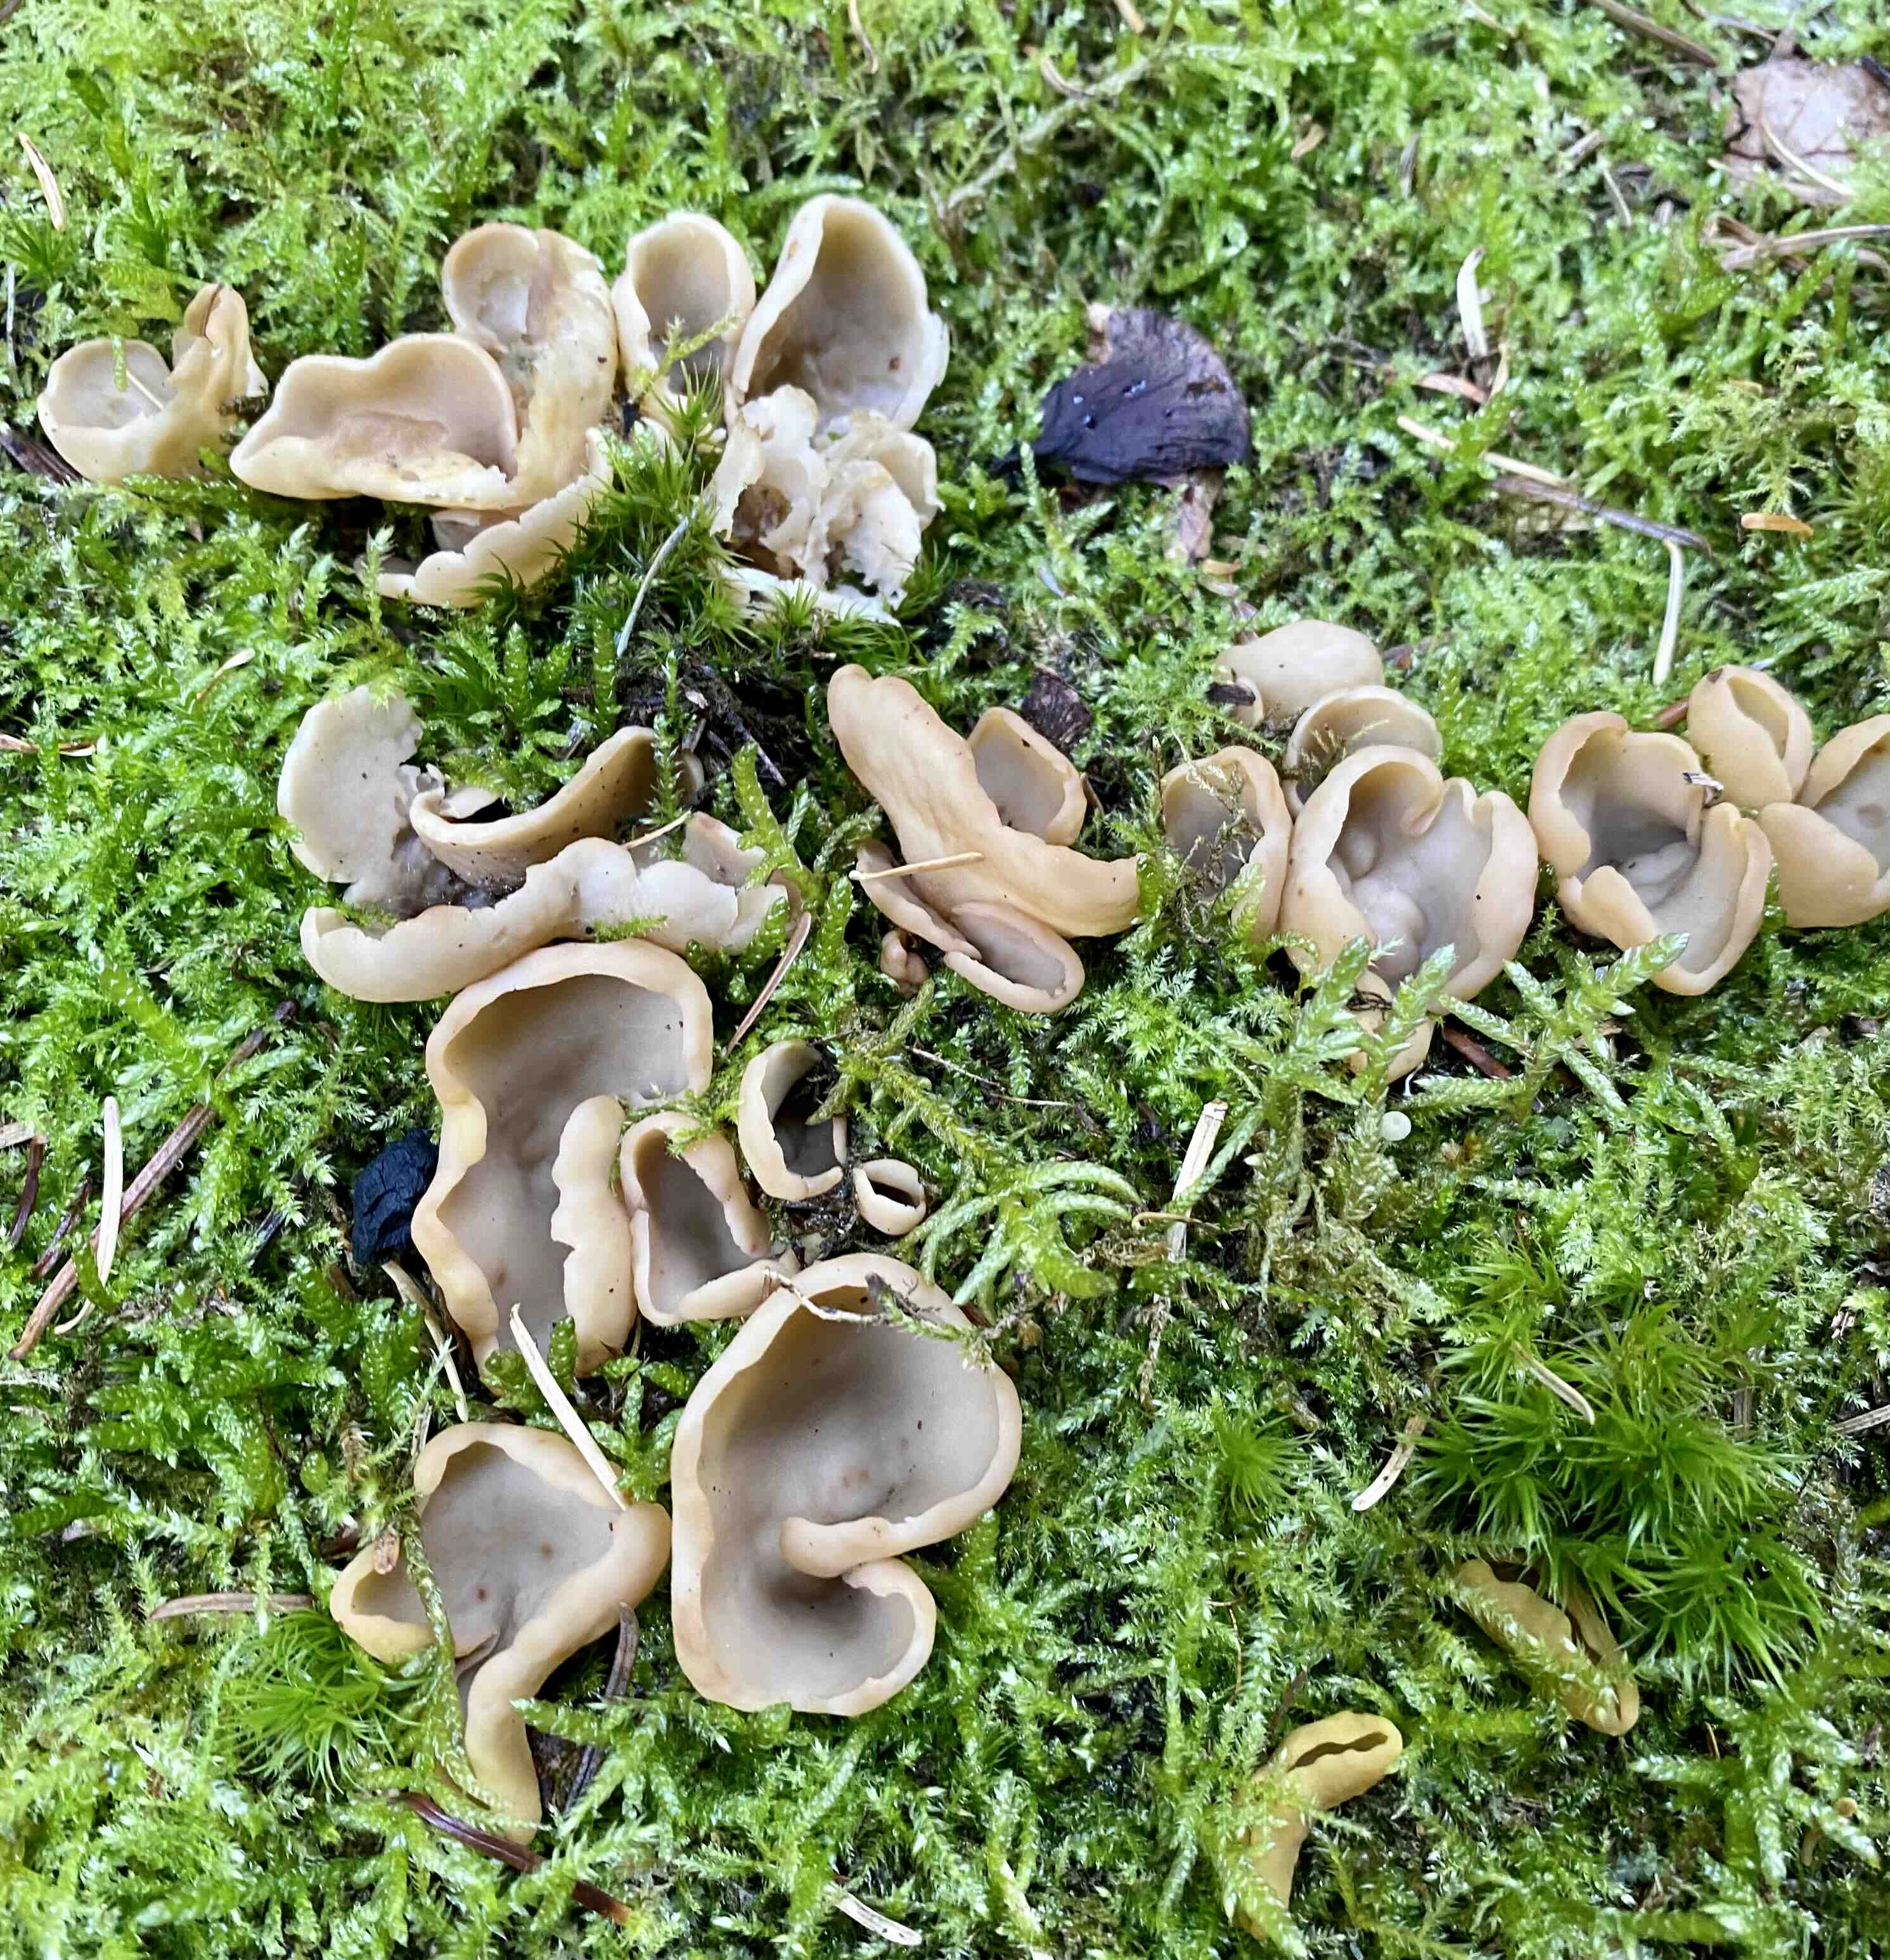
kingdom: Fungi
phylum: Ascomycota
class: Pezizomycetes
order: Pezizales
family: Otideaceae
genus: Otidea
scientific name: Otidea
